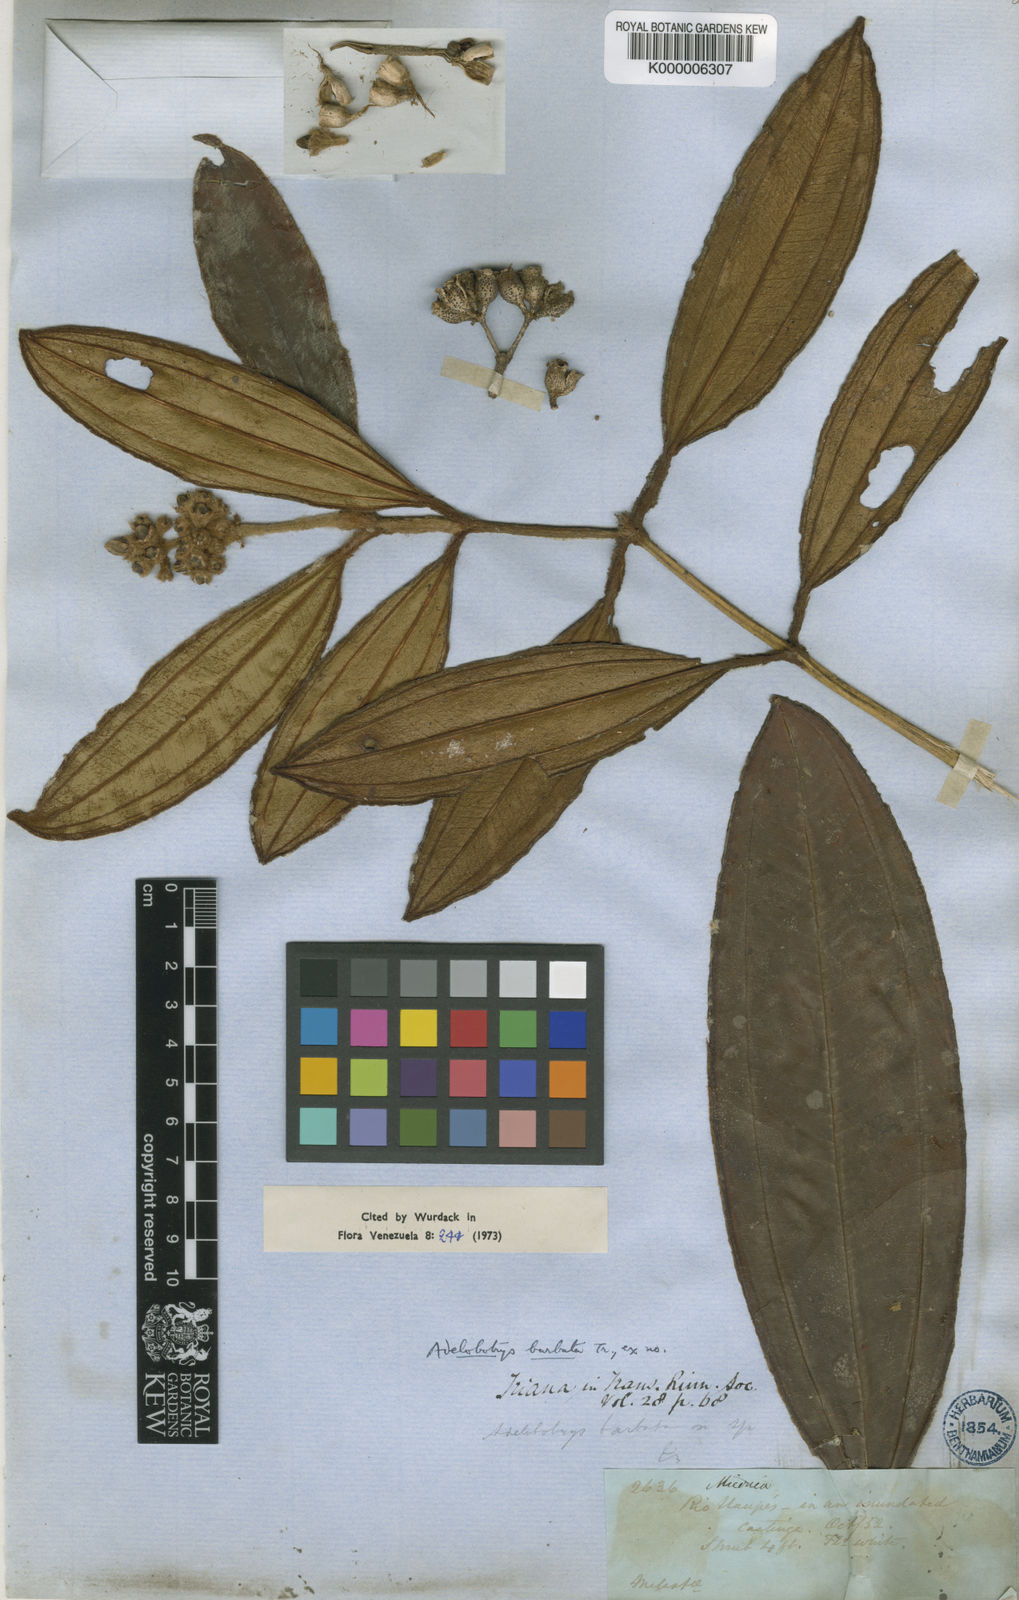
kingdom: Plantae
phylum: Tracheophyta
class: Magnoliopsida
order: Myrtales
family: Melastomataceae
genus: Adelobotrys
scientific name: Adelobotrys barbatus
